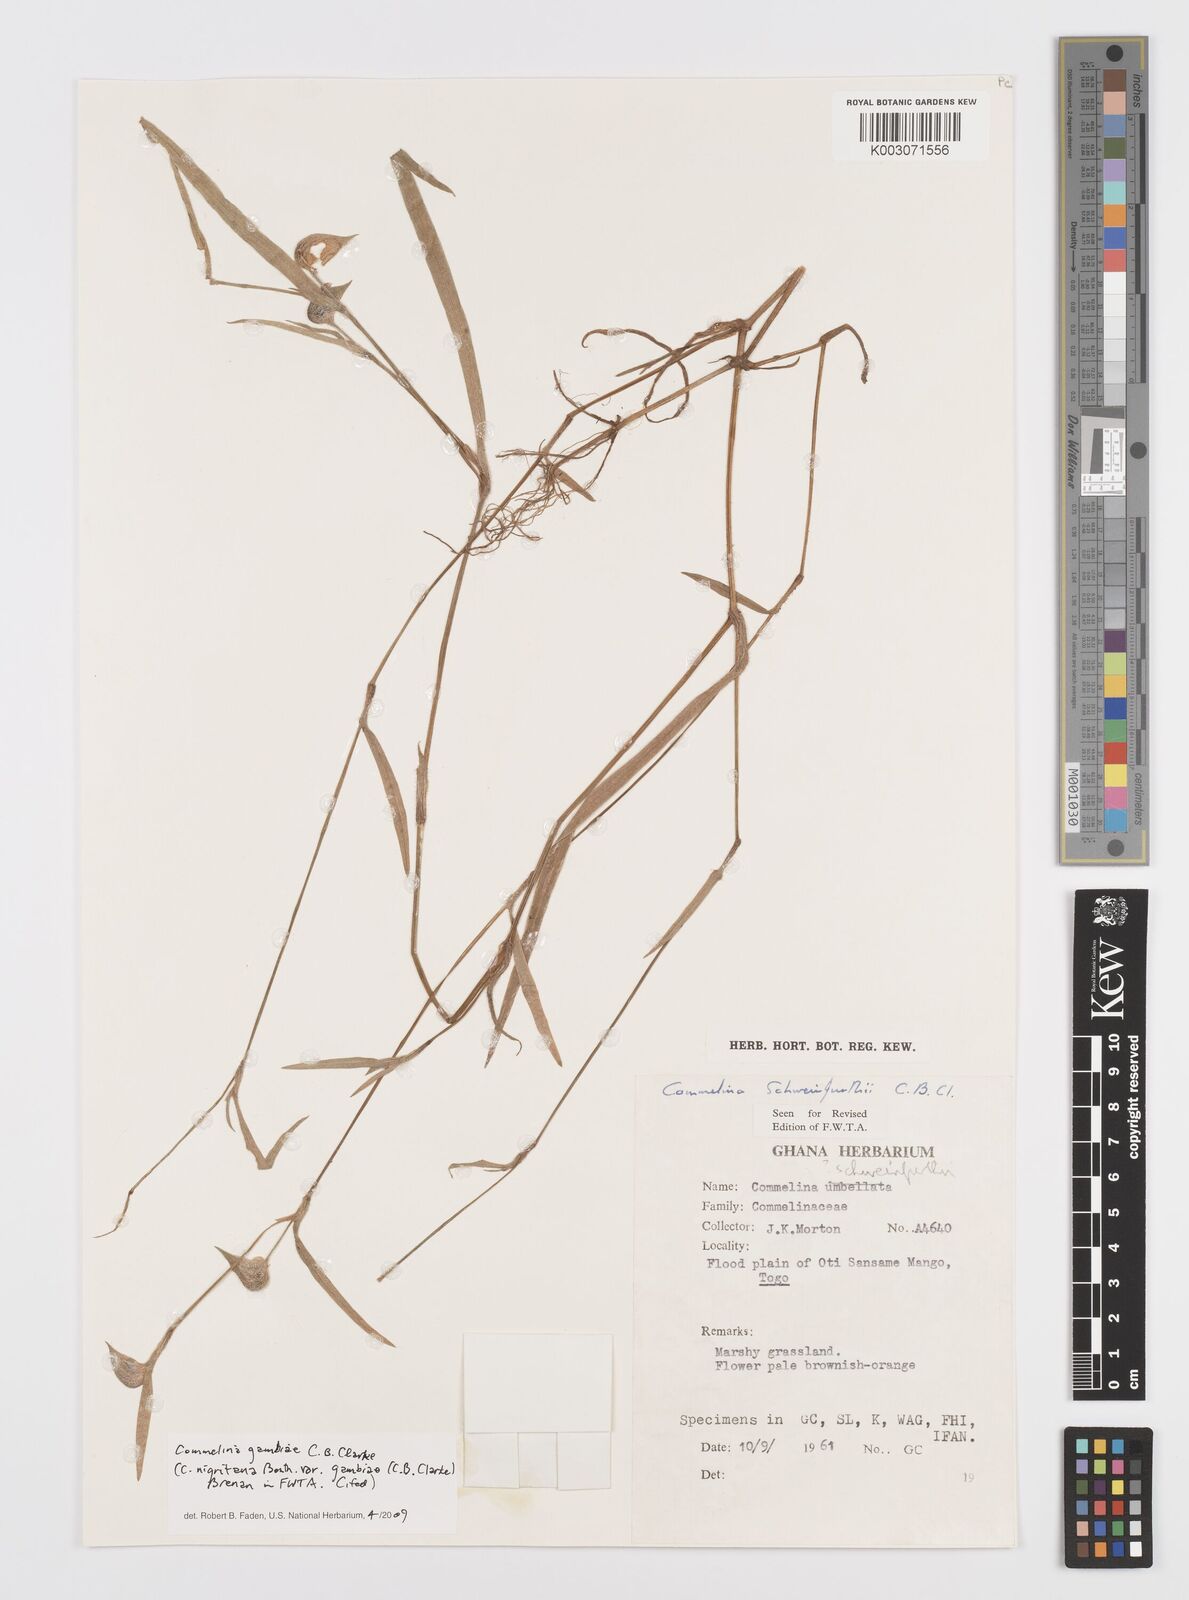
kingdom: Plantae
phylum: Tracheophyta
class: Liliopsida
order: Commelinales
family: Commelinaceae
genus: Commelina
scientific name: Commelina schweinfurthii
